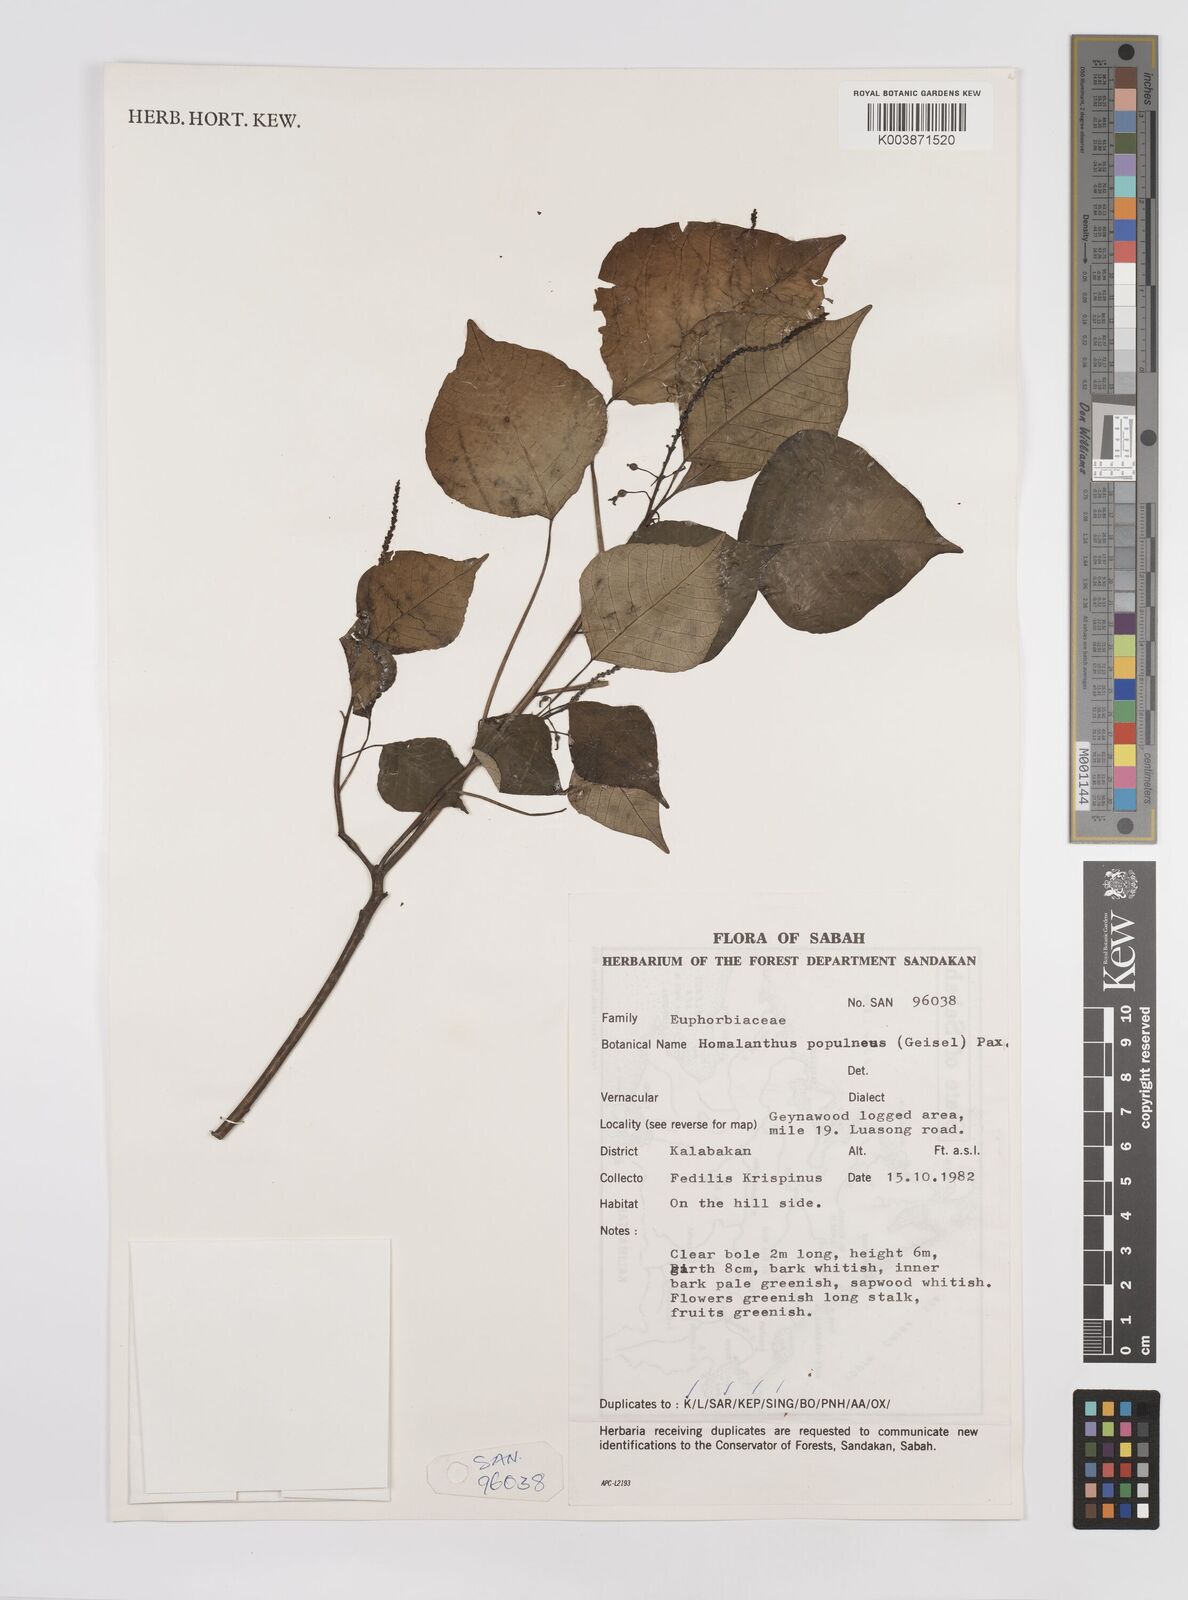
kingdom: Plantae
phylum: Tracheophyta
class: Magnoliopsida
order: Malpighiales
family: Euphorbiaceae
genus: Homalanthus
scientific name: Homalanthus populneus
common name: Spurge
